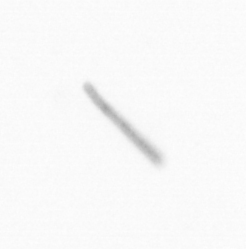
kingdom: Chromista
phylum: Ochrophyta
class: Bacillariophyceae
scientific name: Bacillariophyceae
